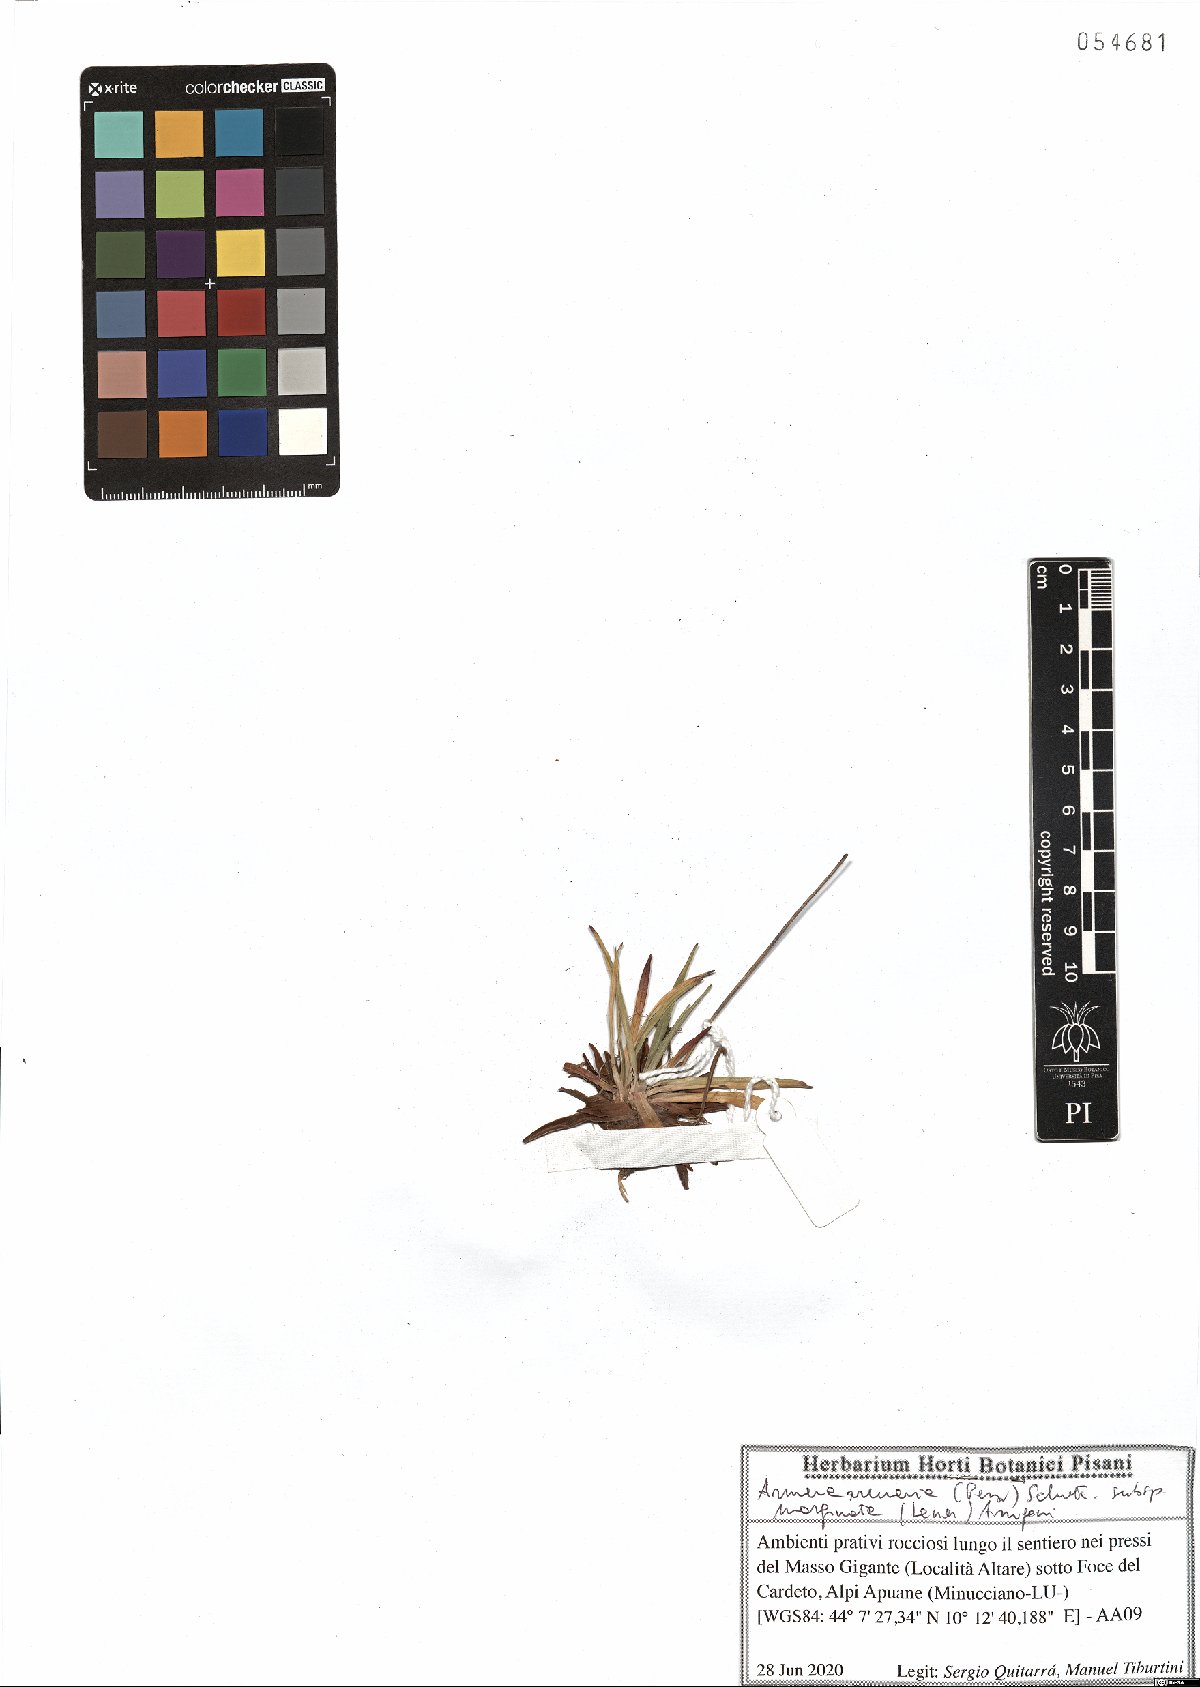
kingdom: Plantae
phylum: Tracheophyta
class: Magnoliopsida
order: Caryophyllales
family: Plumbaginaceae
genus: Armeria
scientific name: Armeria arenaria
